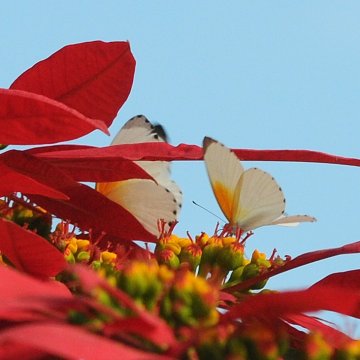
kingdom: Animalia
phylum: Arthropoda
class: Insecta
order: Lepidoptera
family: Pieridae
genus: Mylothris
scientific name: Mylothris rueppellii
